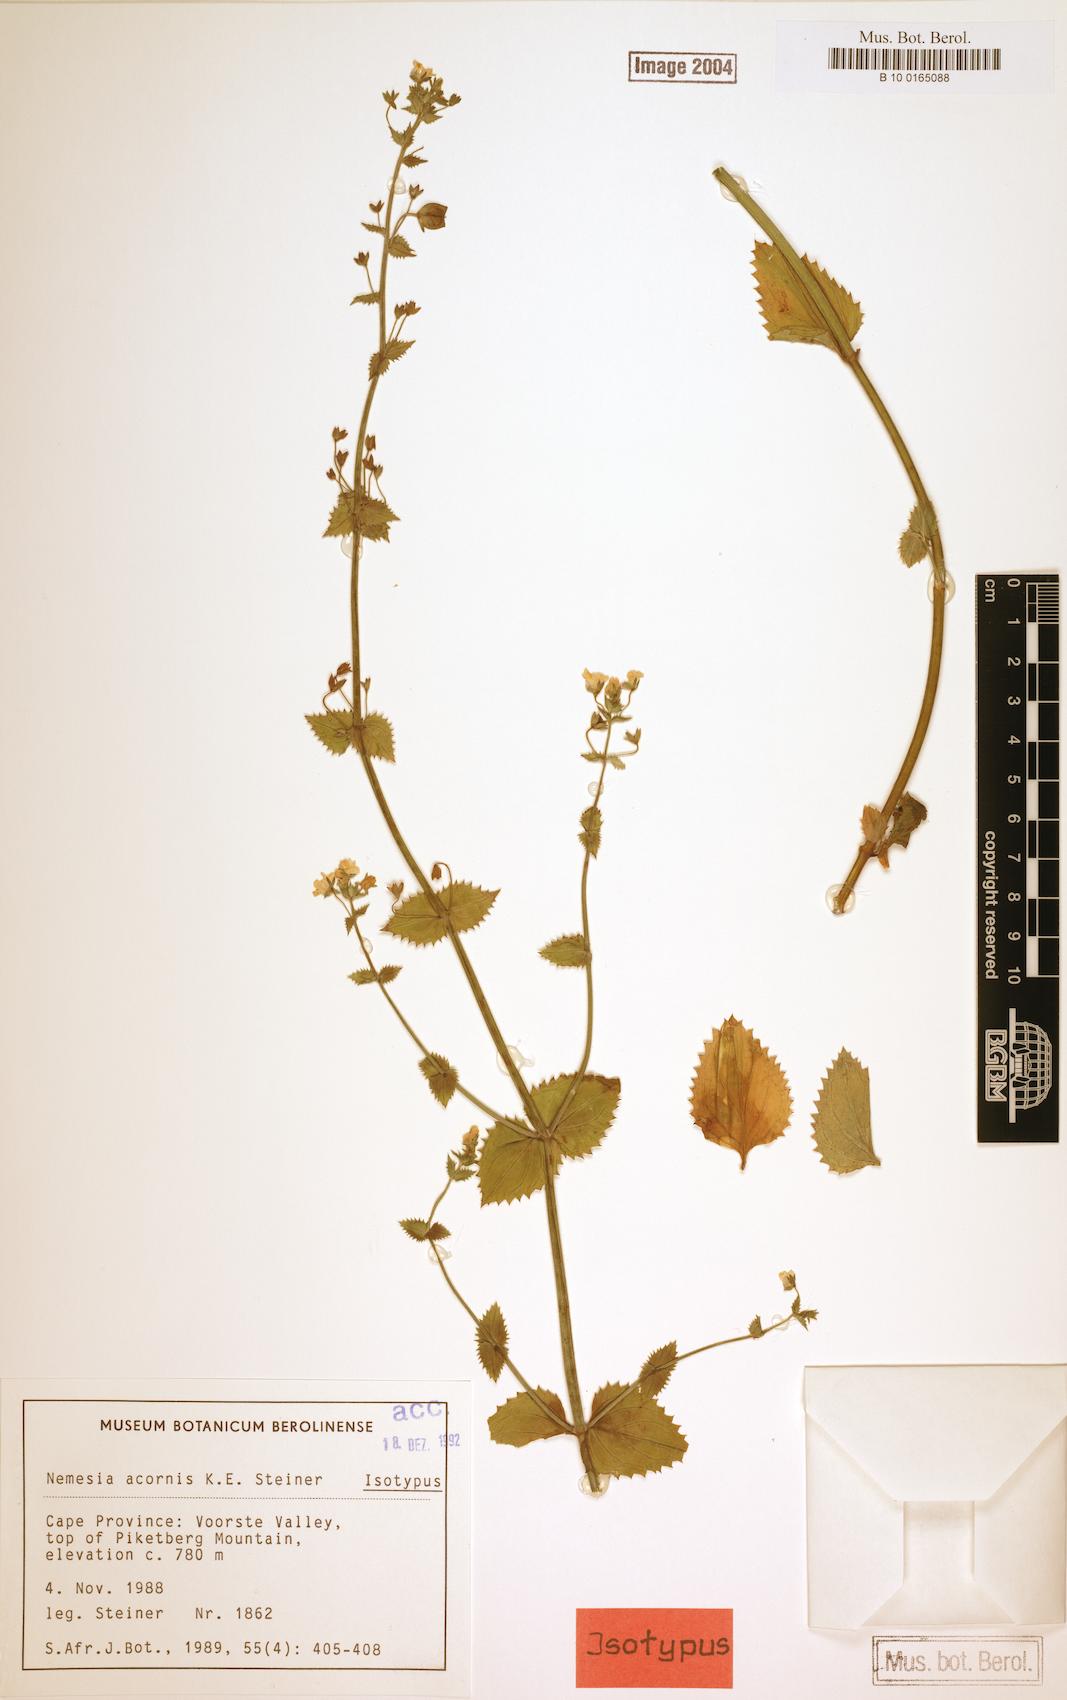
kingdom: Plantae
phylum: Tracheophyta
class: Magnoliopsida
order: Lamiales
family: Scrophulariaceae
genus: Nemesia
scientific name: Nemesia acornis
